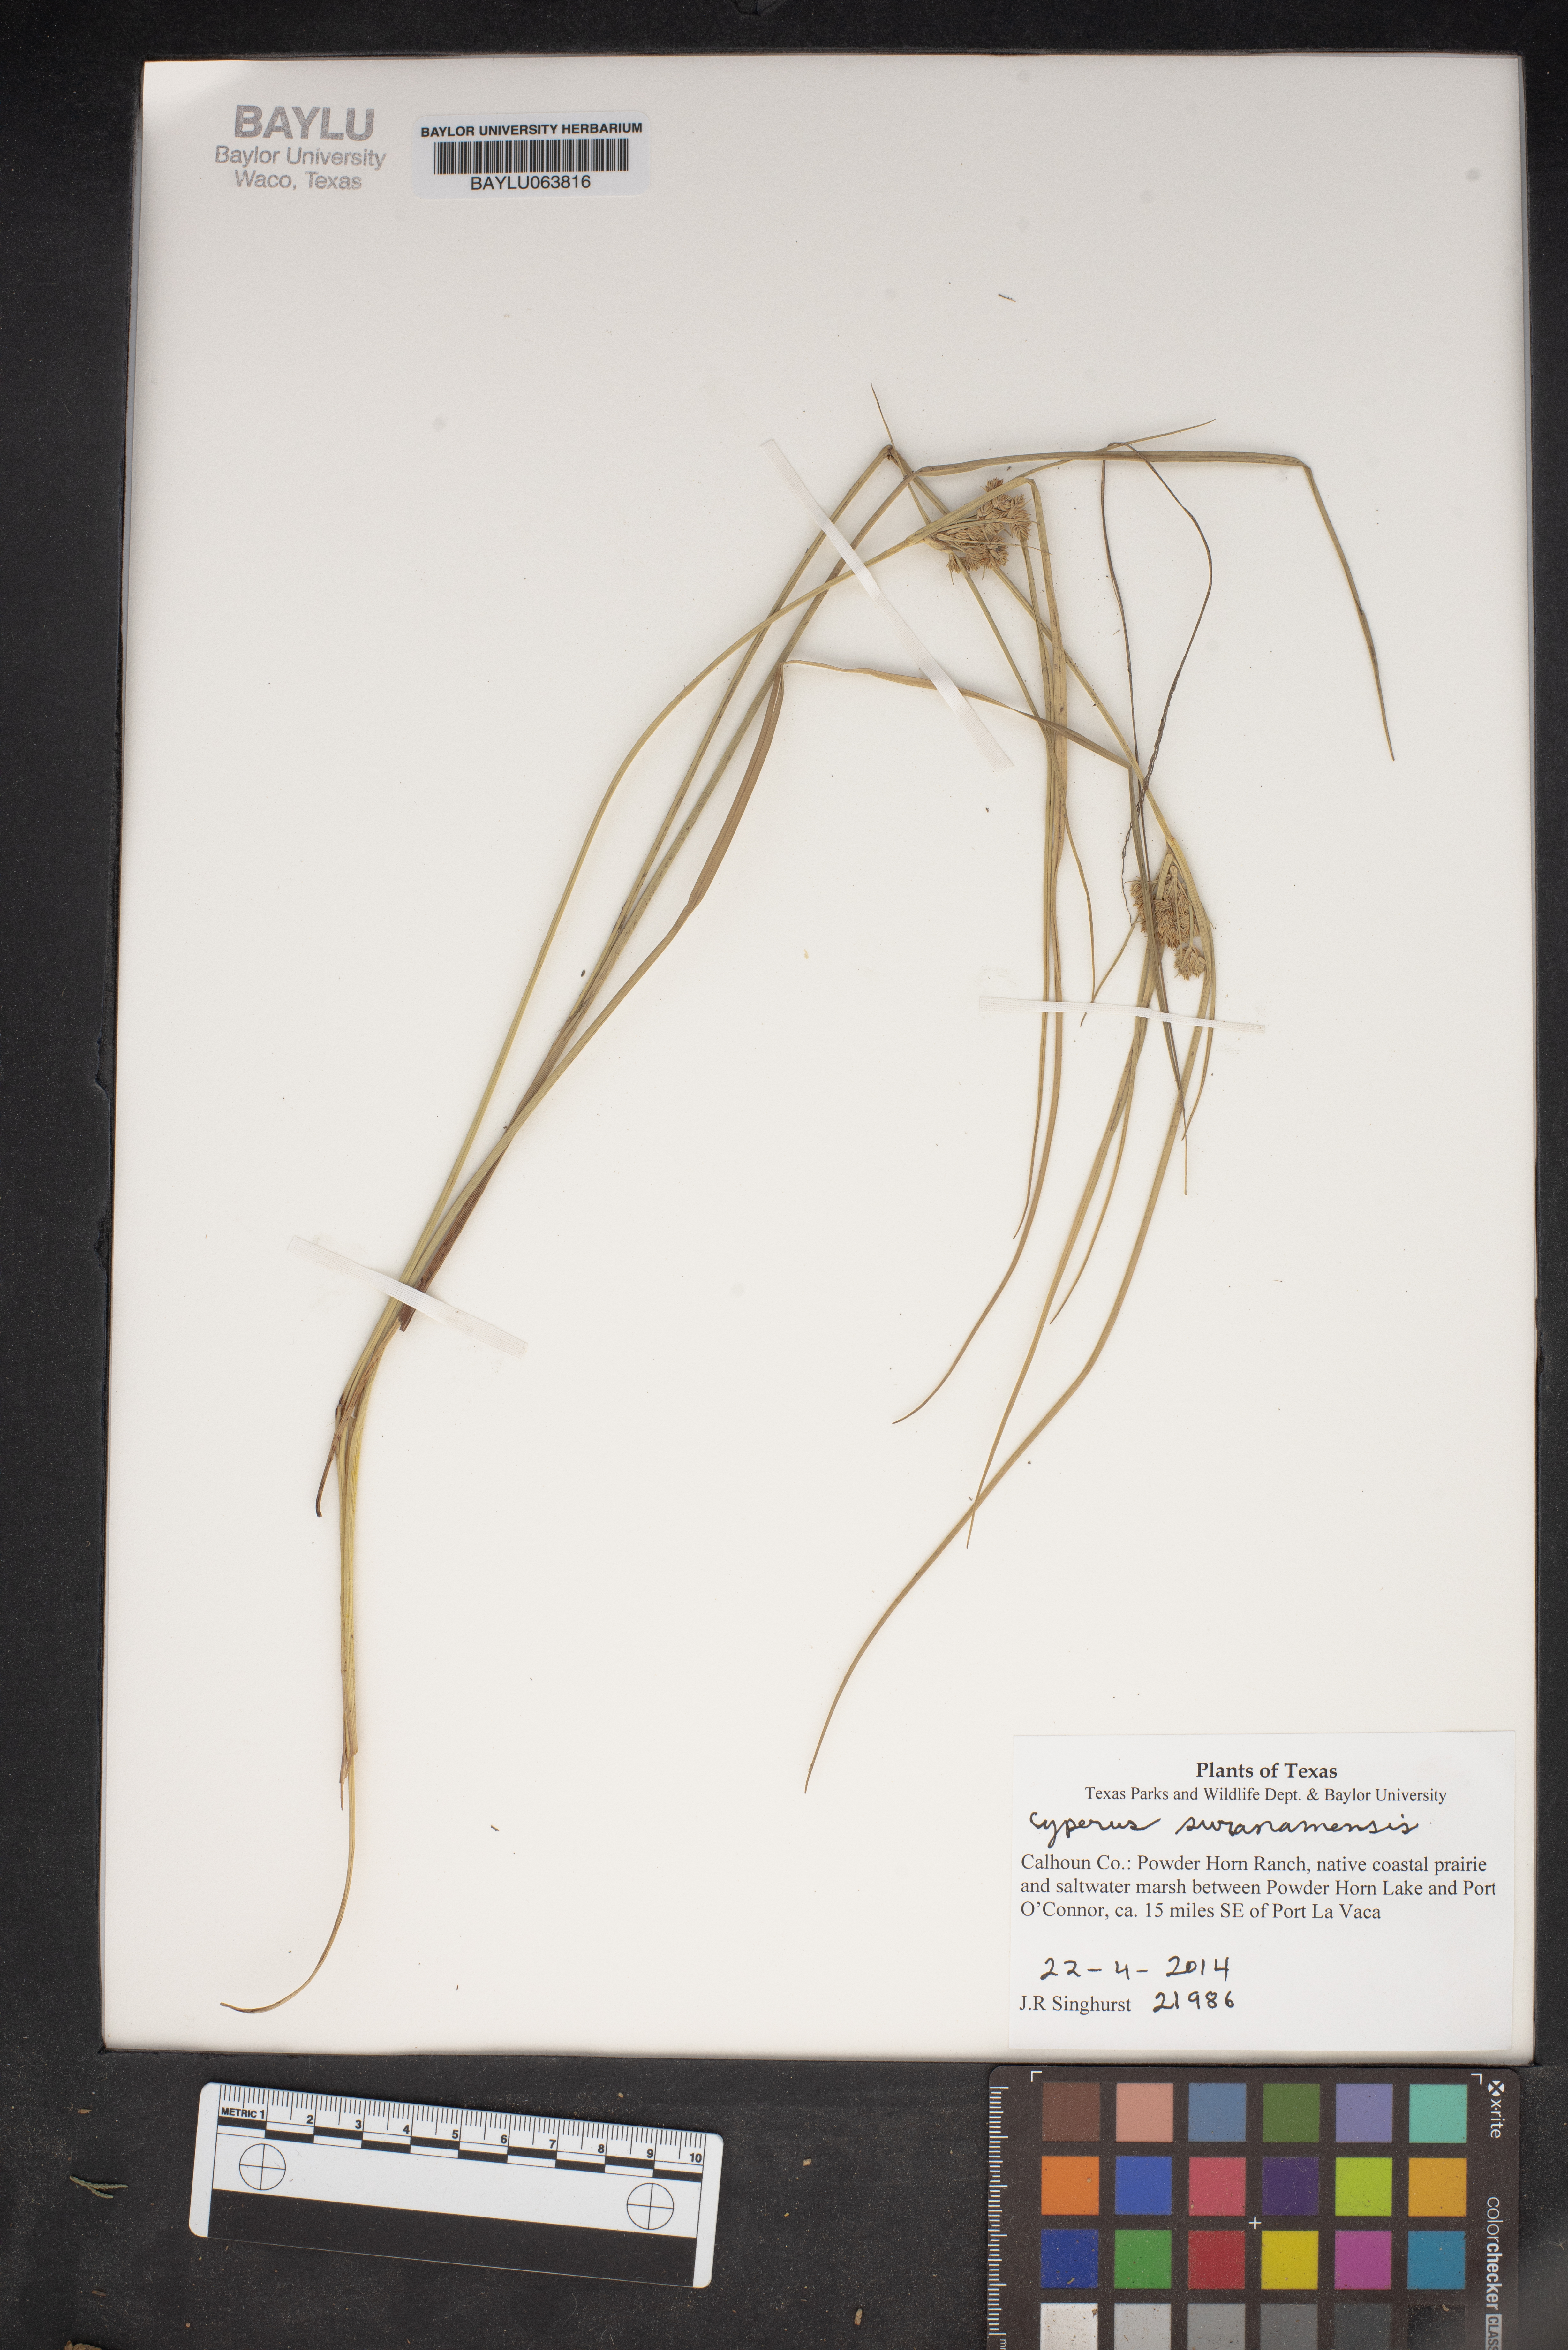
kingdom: Plantae
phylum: Tracheophyta
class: Liliopsida
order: Poales
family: Cyperaceae
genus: Cyperus
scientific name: Cyperus surinamensis
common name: Tropical flat sedge
